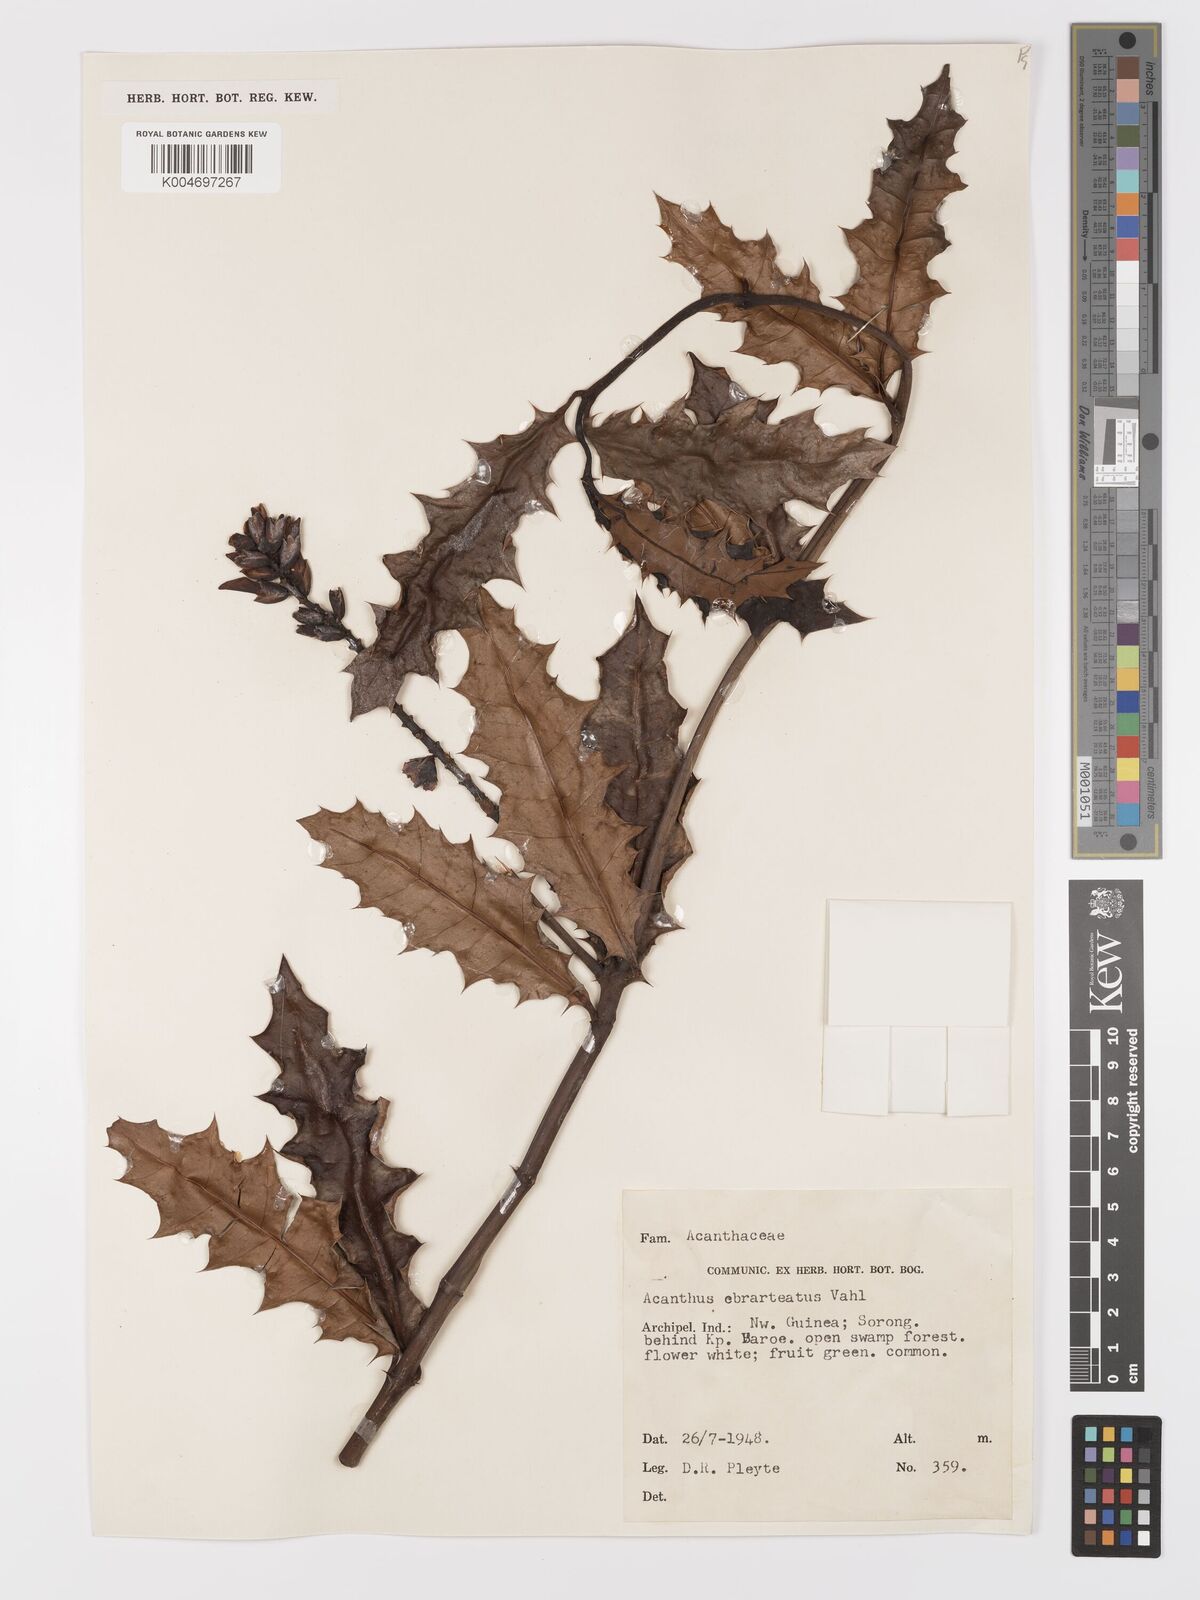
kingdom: Plantae
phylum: Tracheophyta
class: Magnoliopsida
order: Lamiales
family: Acanthaceae
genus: Acanthus
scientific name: Acanthus ebracteatus
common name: Acanthus
